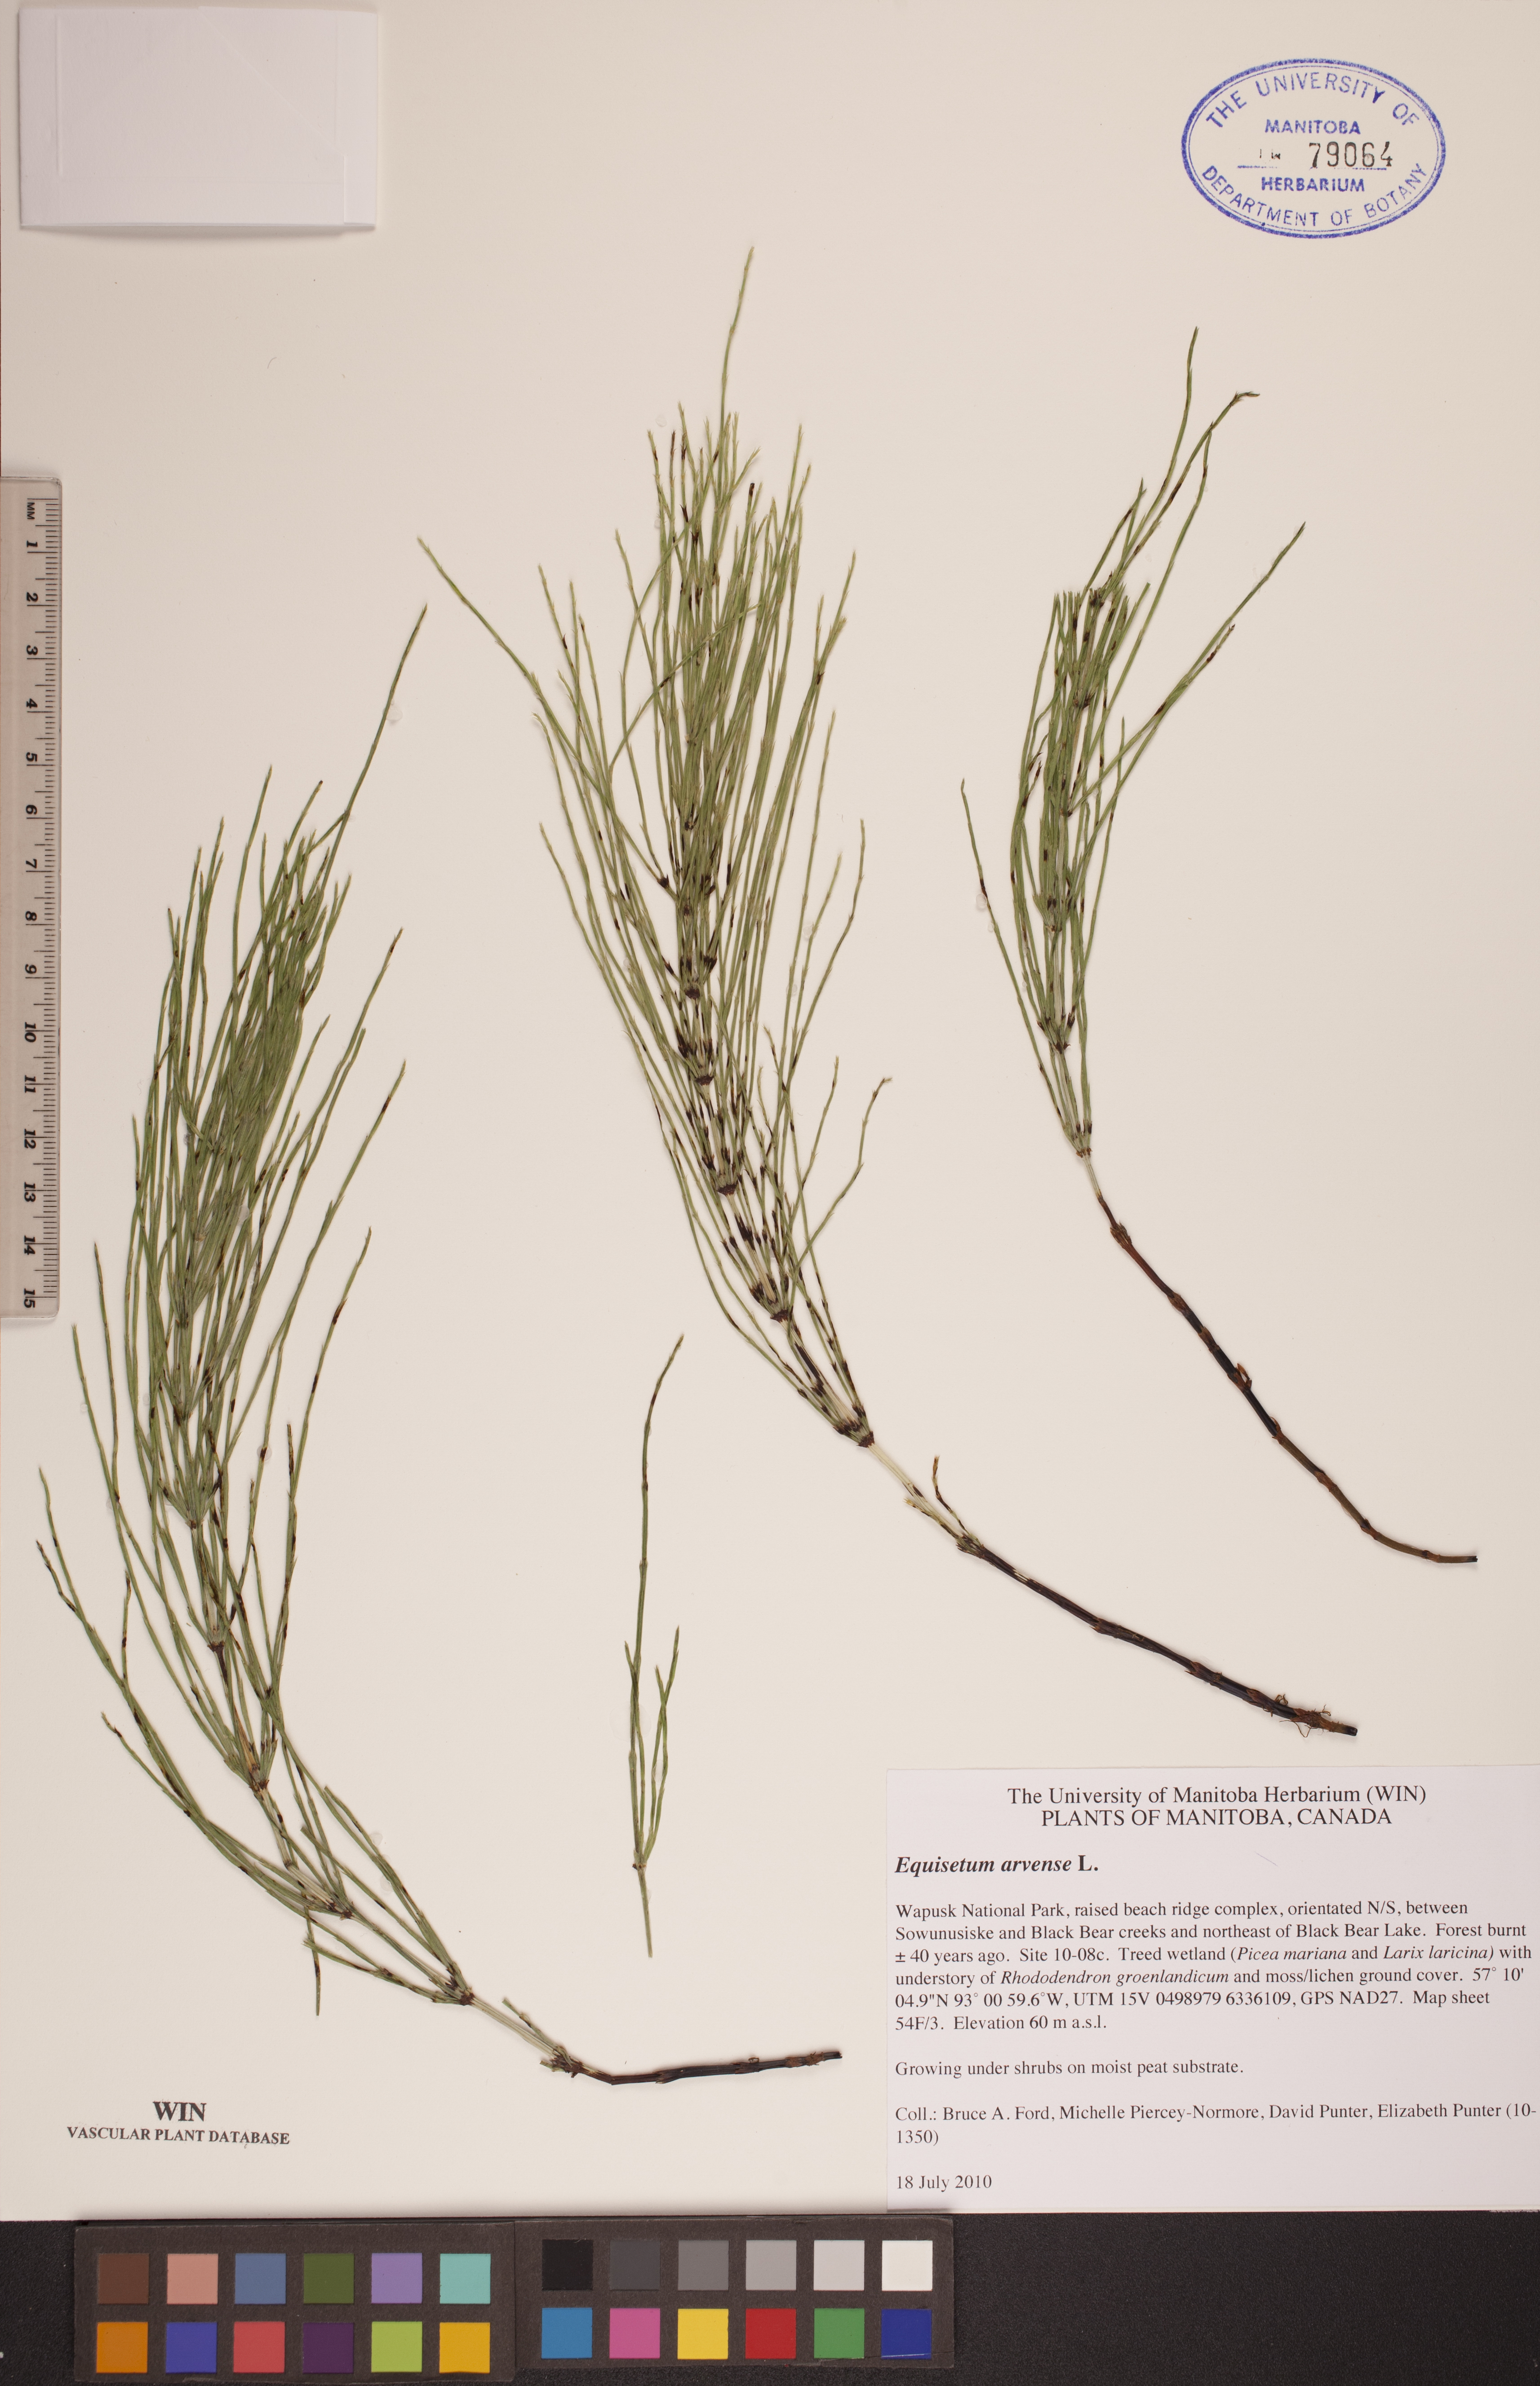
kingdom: Plantae
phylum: Tracheophyta
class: Polypodiopsida
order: Equisetales
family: Equisetaceae
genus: Equisetum
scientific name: Equisetum arvense
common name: Field horsetail
